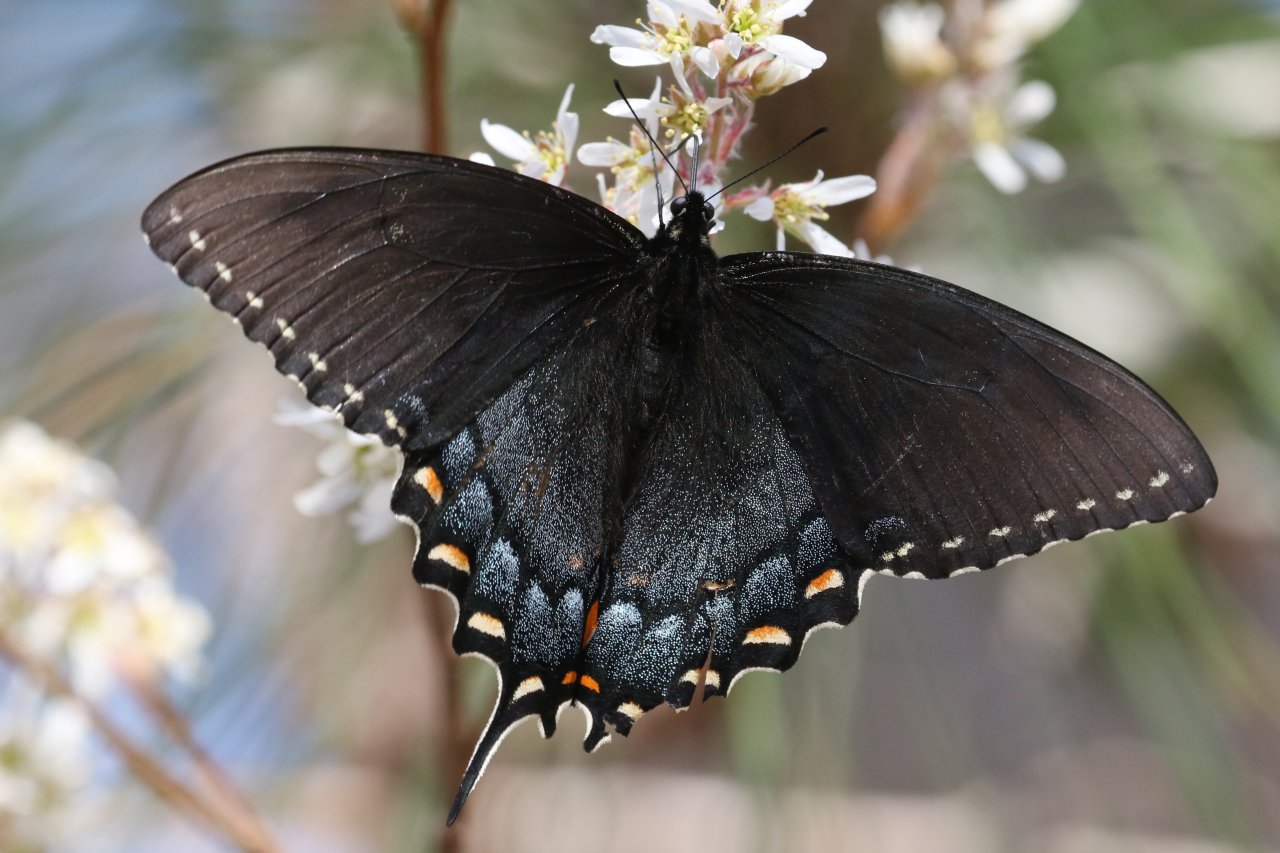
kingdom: Animalia
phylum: Arthropoda
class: Insecta
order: Lepidoptera
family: Papilionidae
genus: Pterourus
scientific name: Pterourus glaucus
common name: Eastern Tiger Swallowtail
